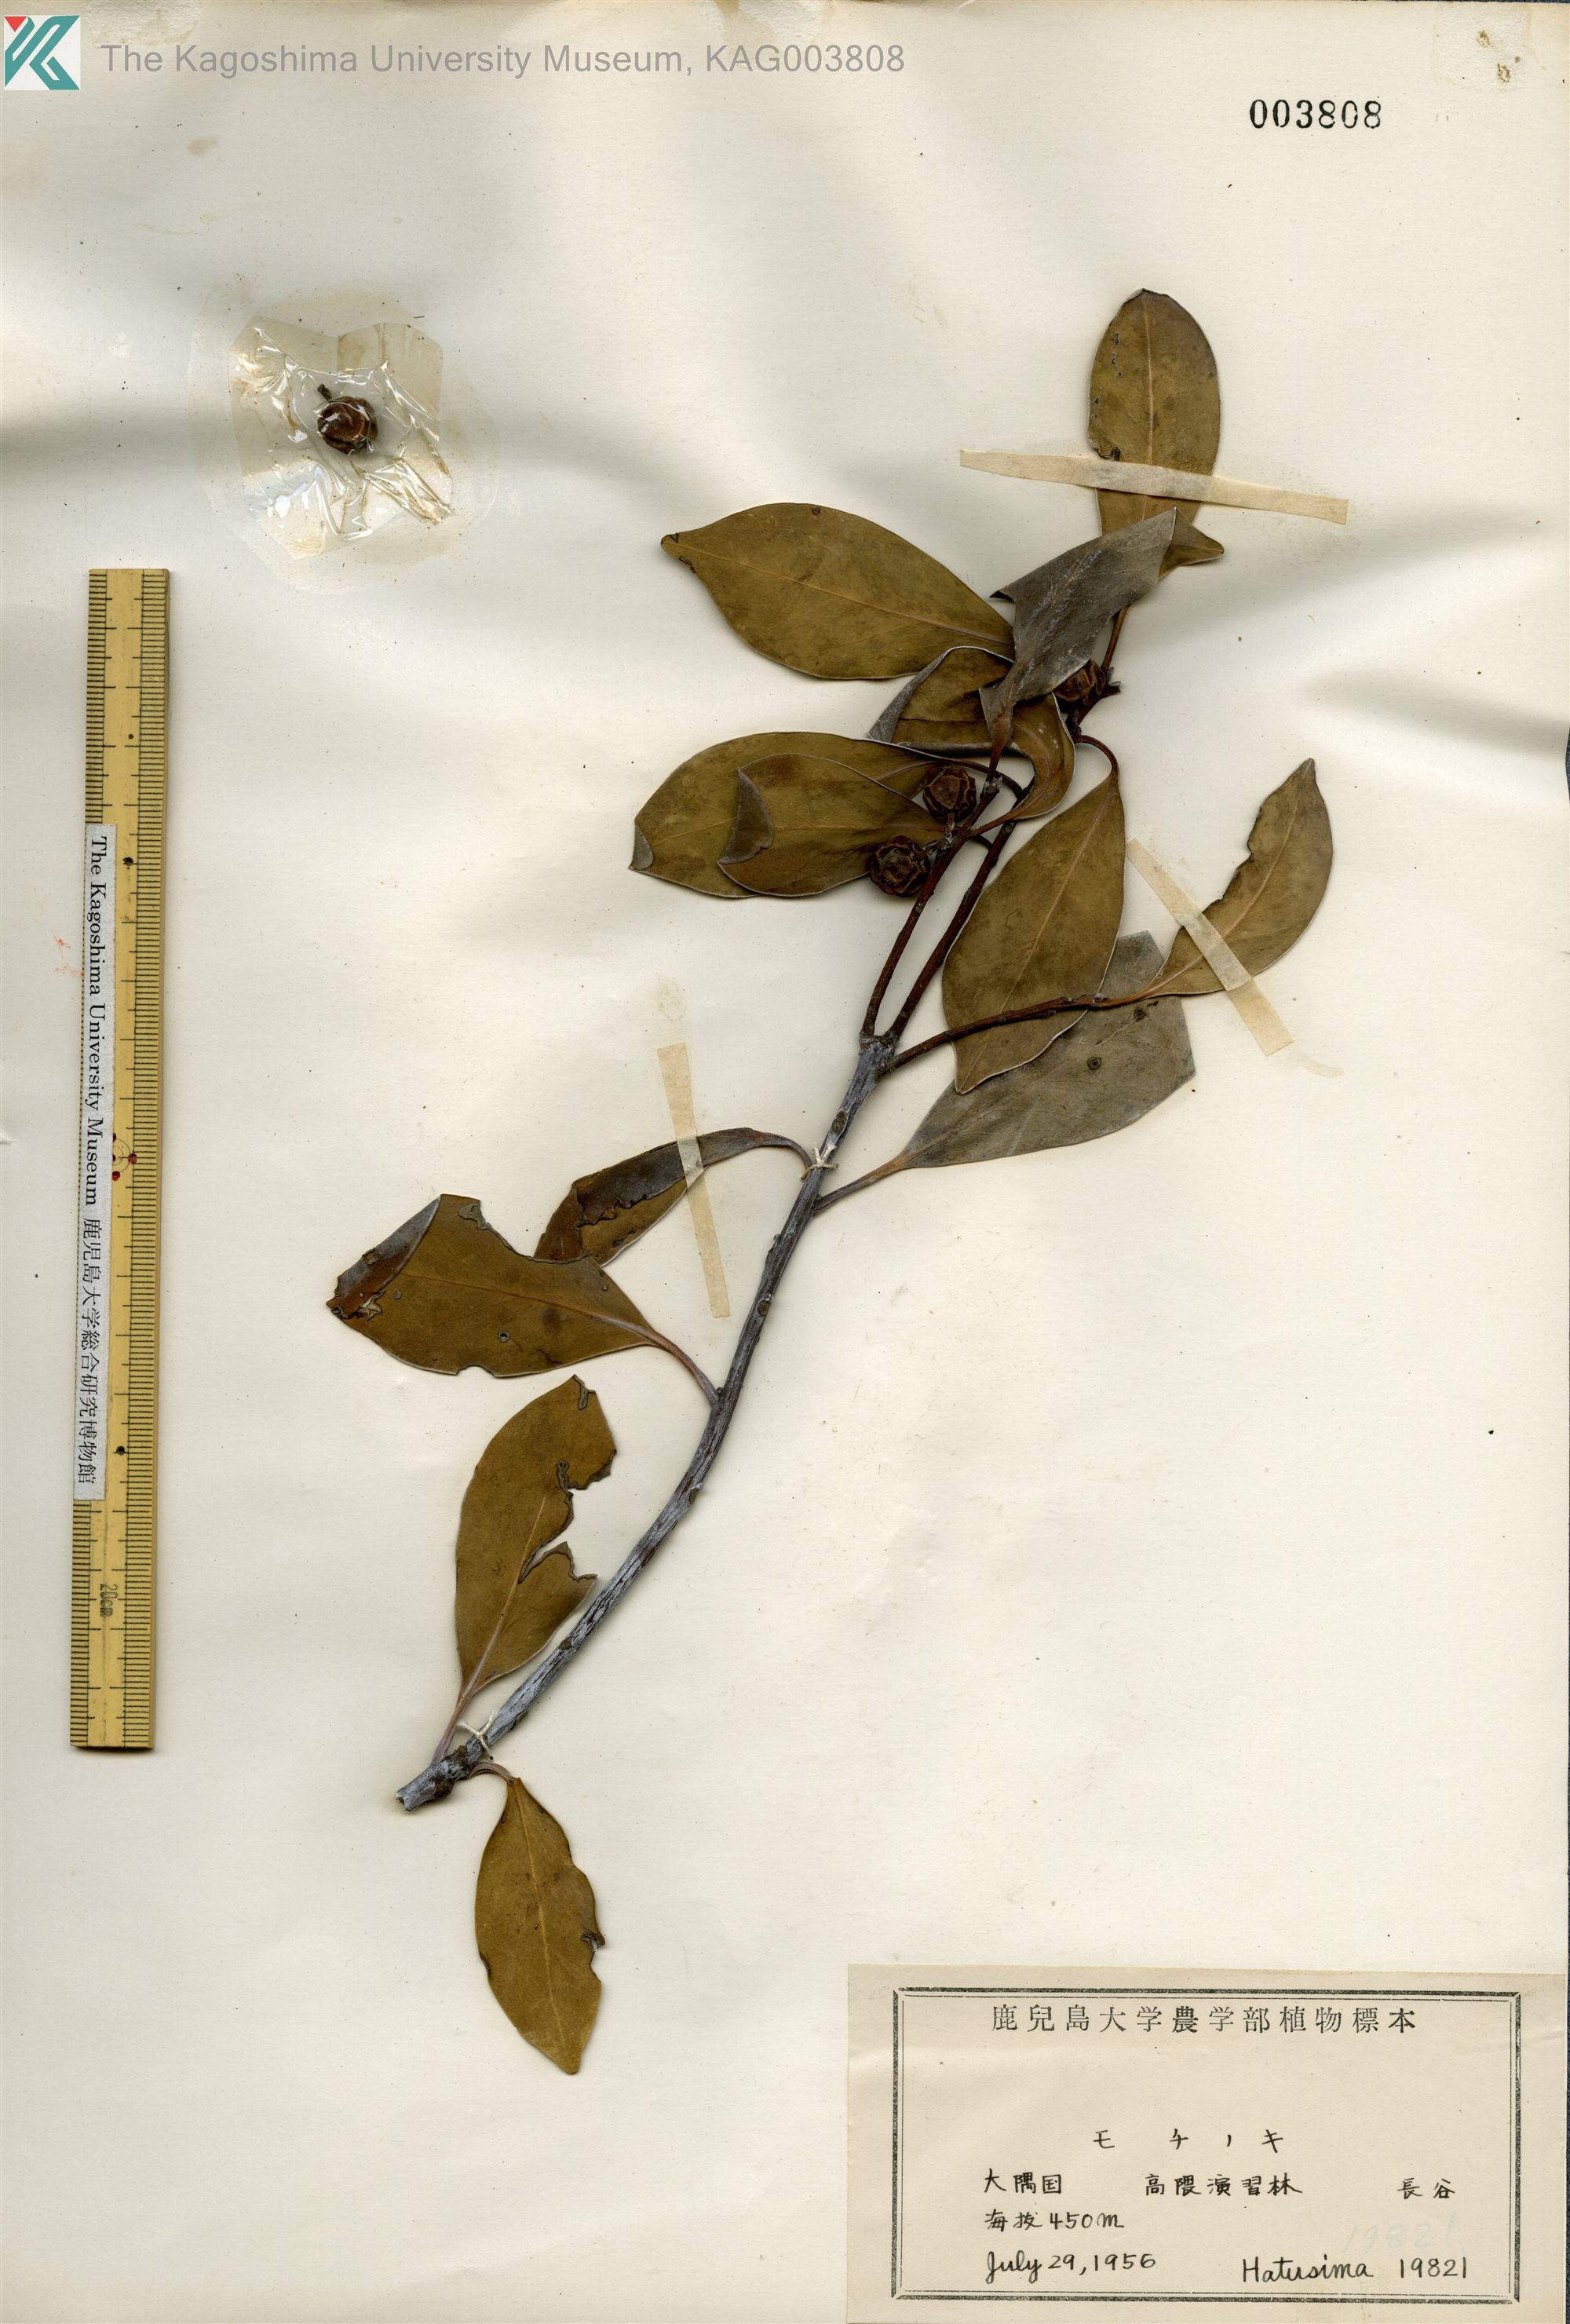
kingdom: Plantae
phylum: Tracheophyta
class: Magnoliopsida
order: Aquifoliales
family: Aquifoliaceae
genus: Ilex
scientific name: Ilex integra
